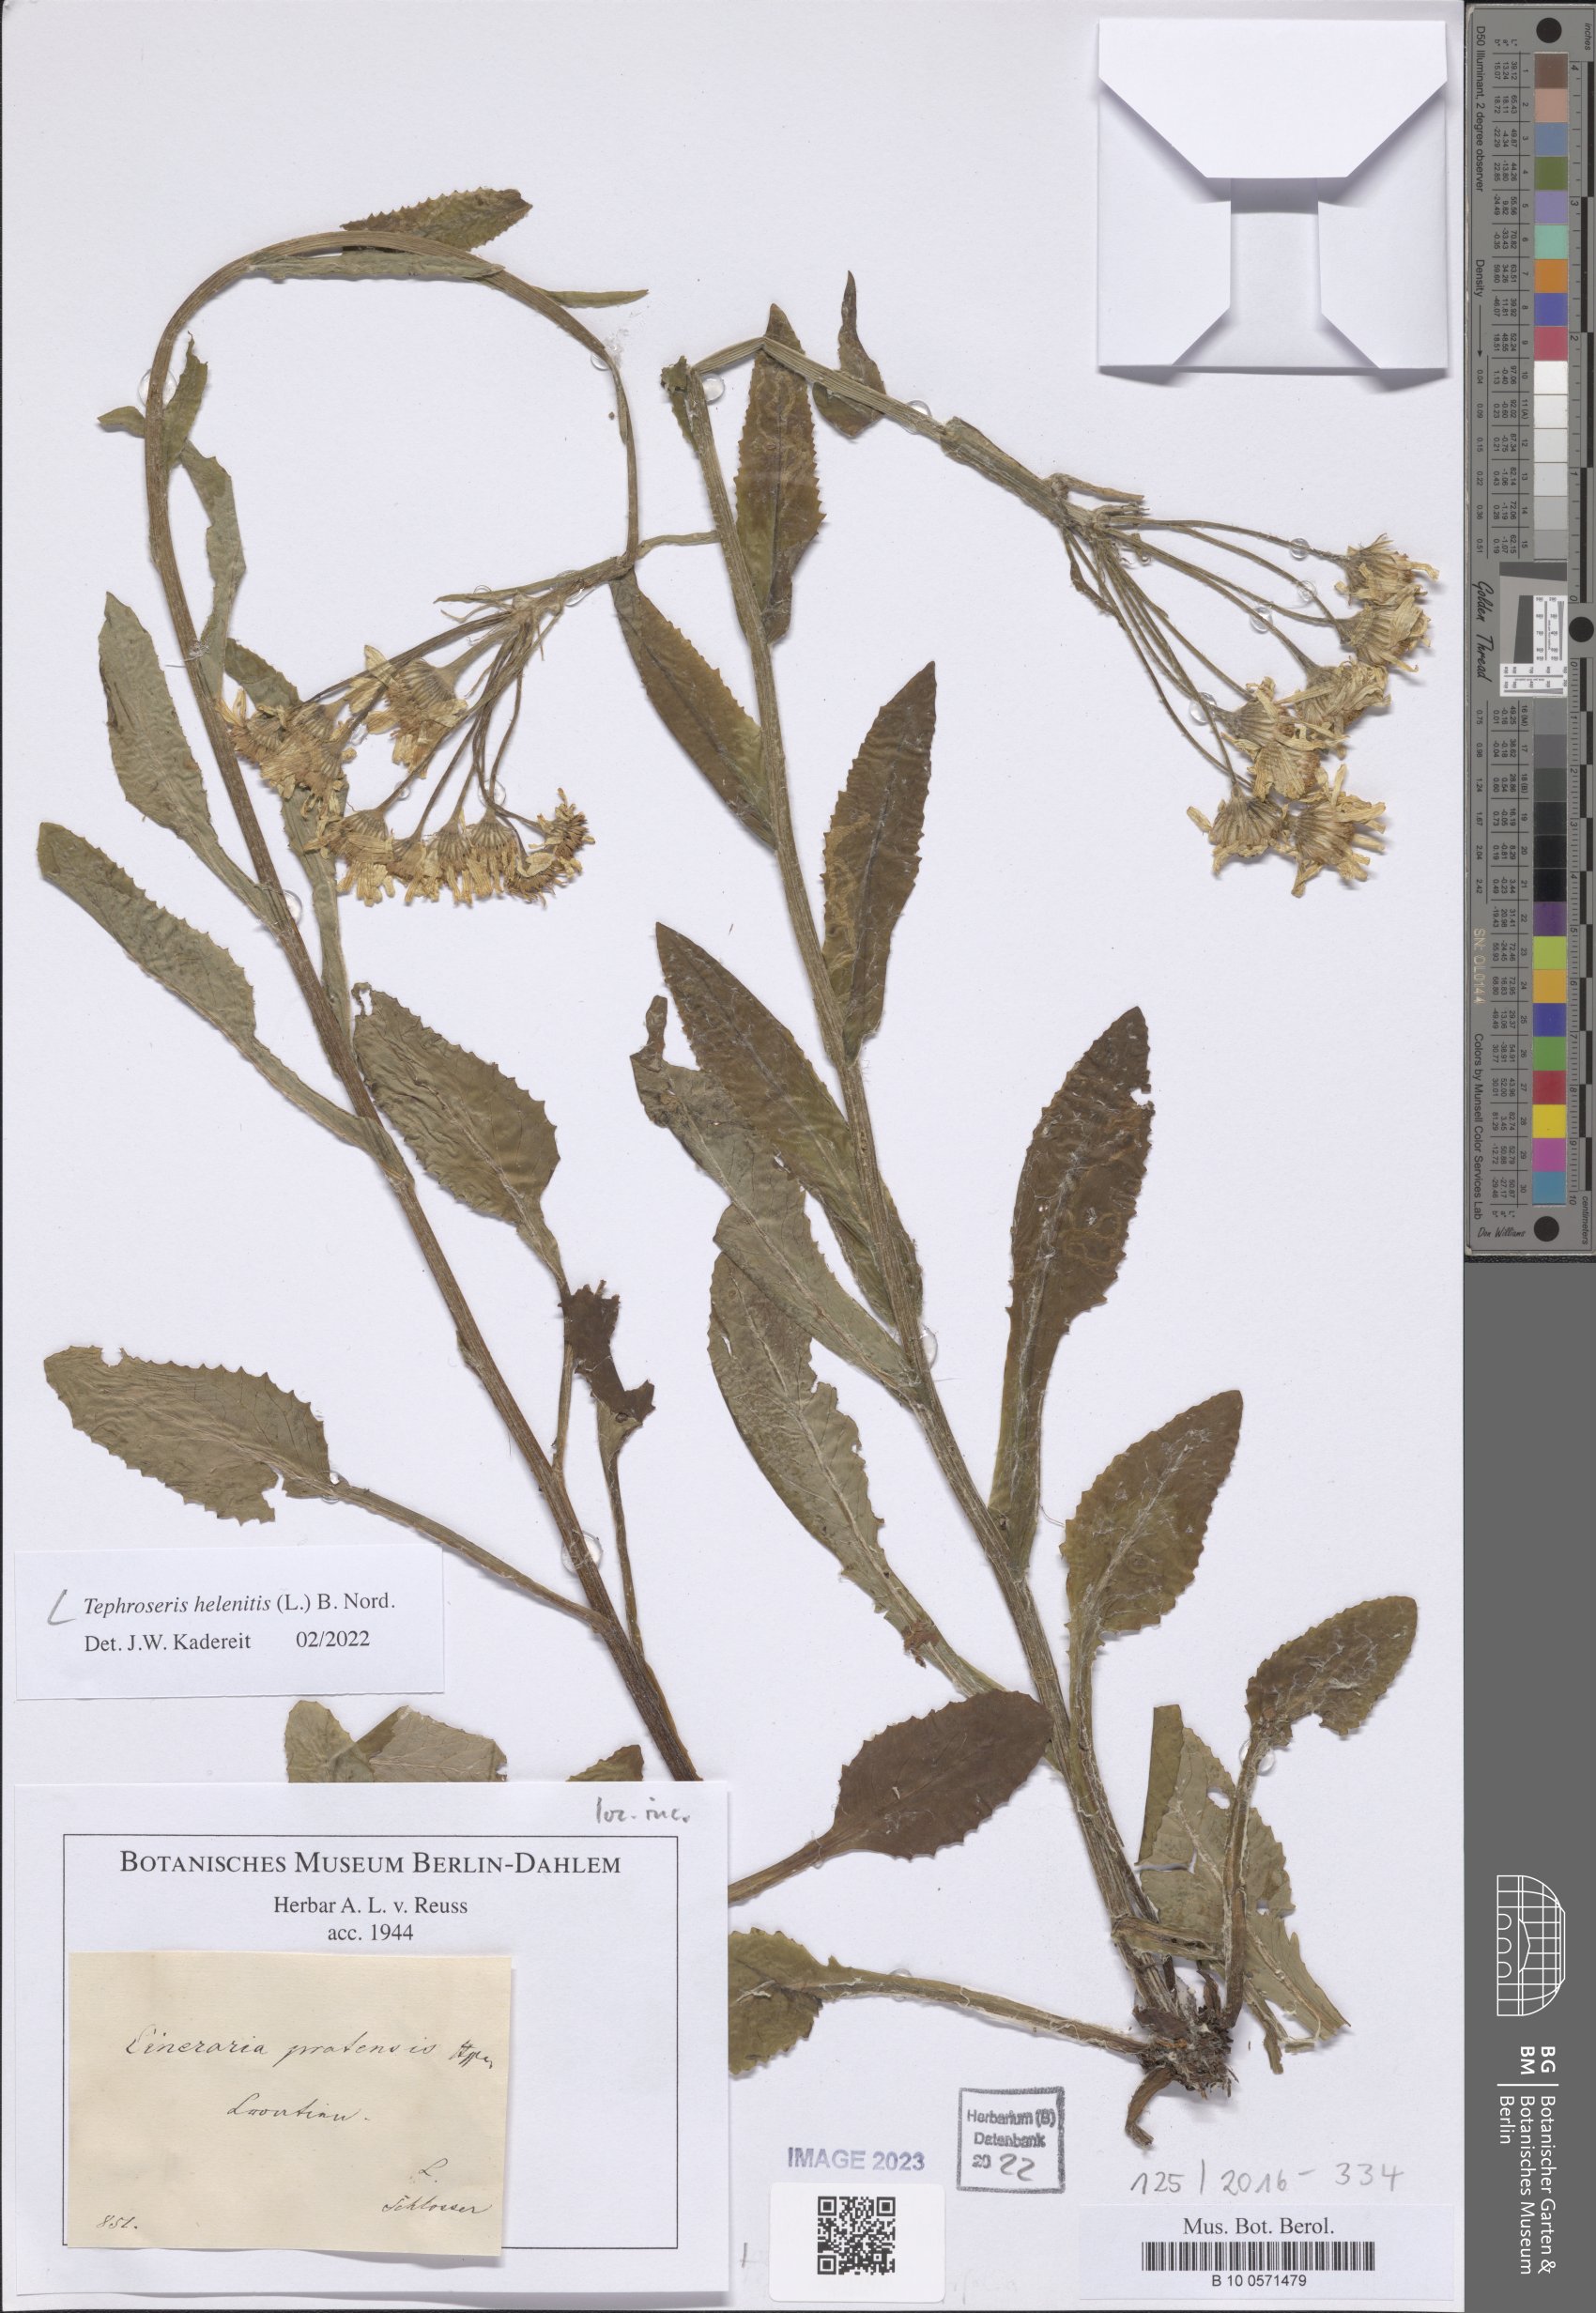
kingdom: Plantae
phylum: Tracheophyta
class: Magnoliopsida
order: Asterales
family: Asteraceae
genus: Tephroseris
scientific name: Tephroseris helenitis
